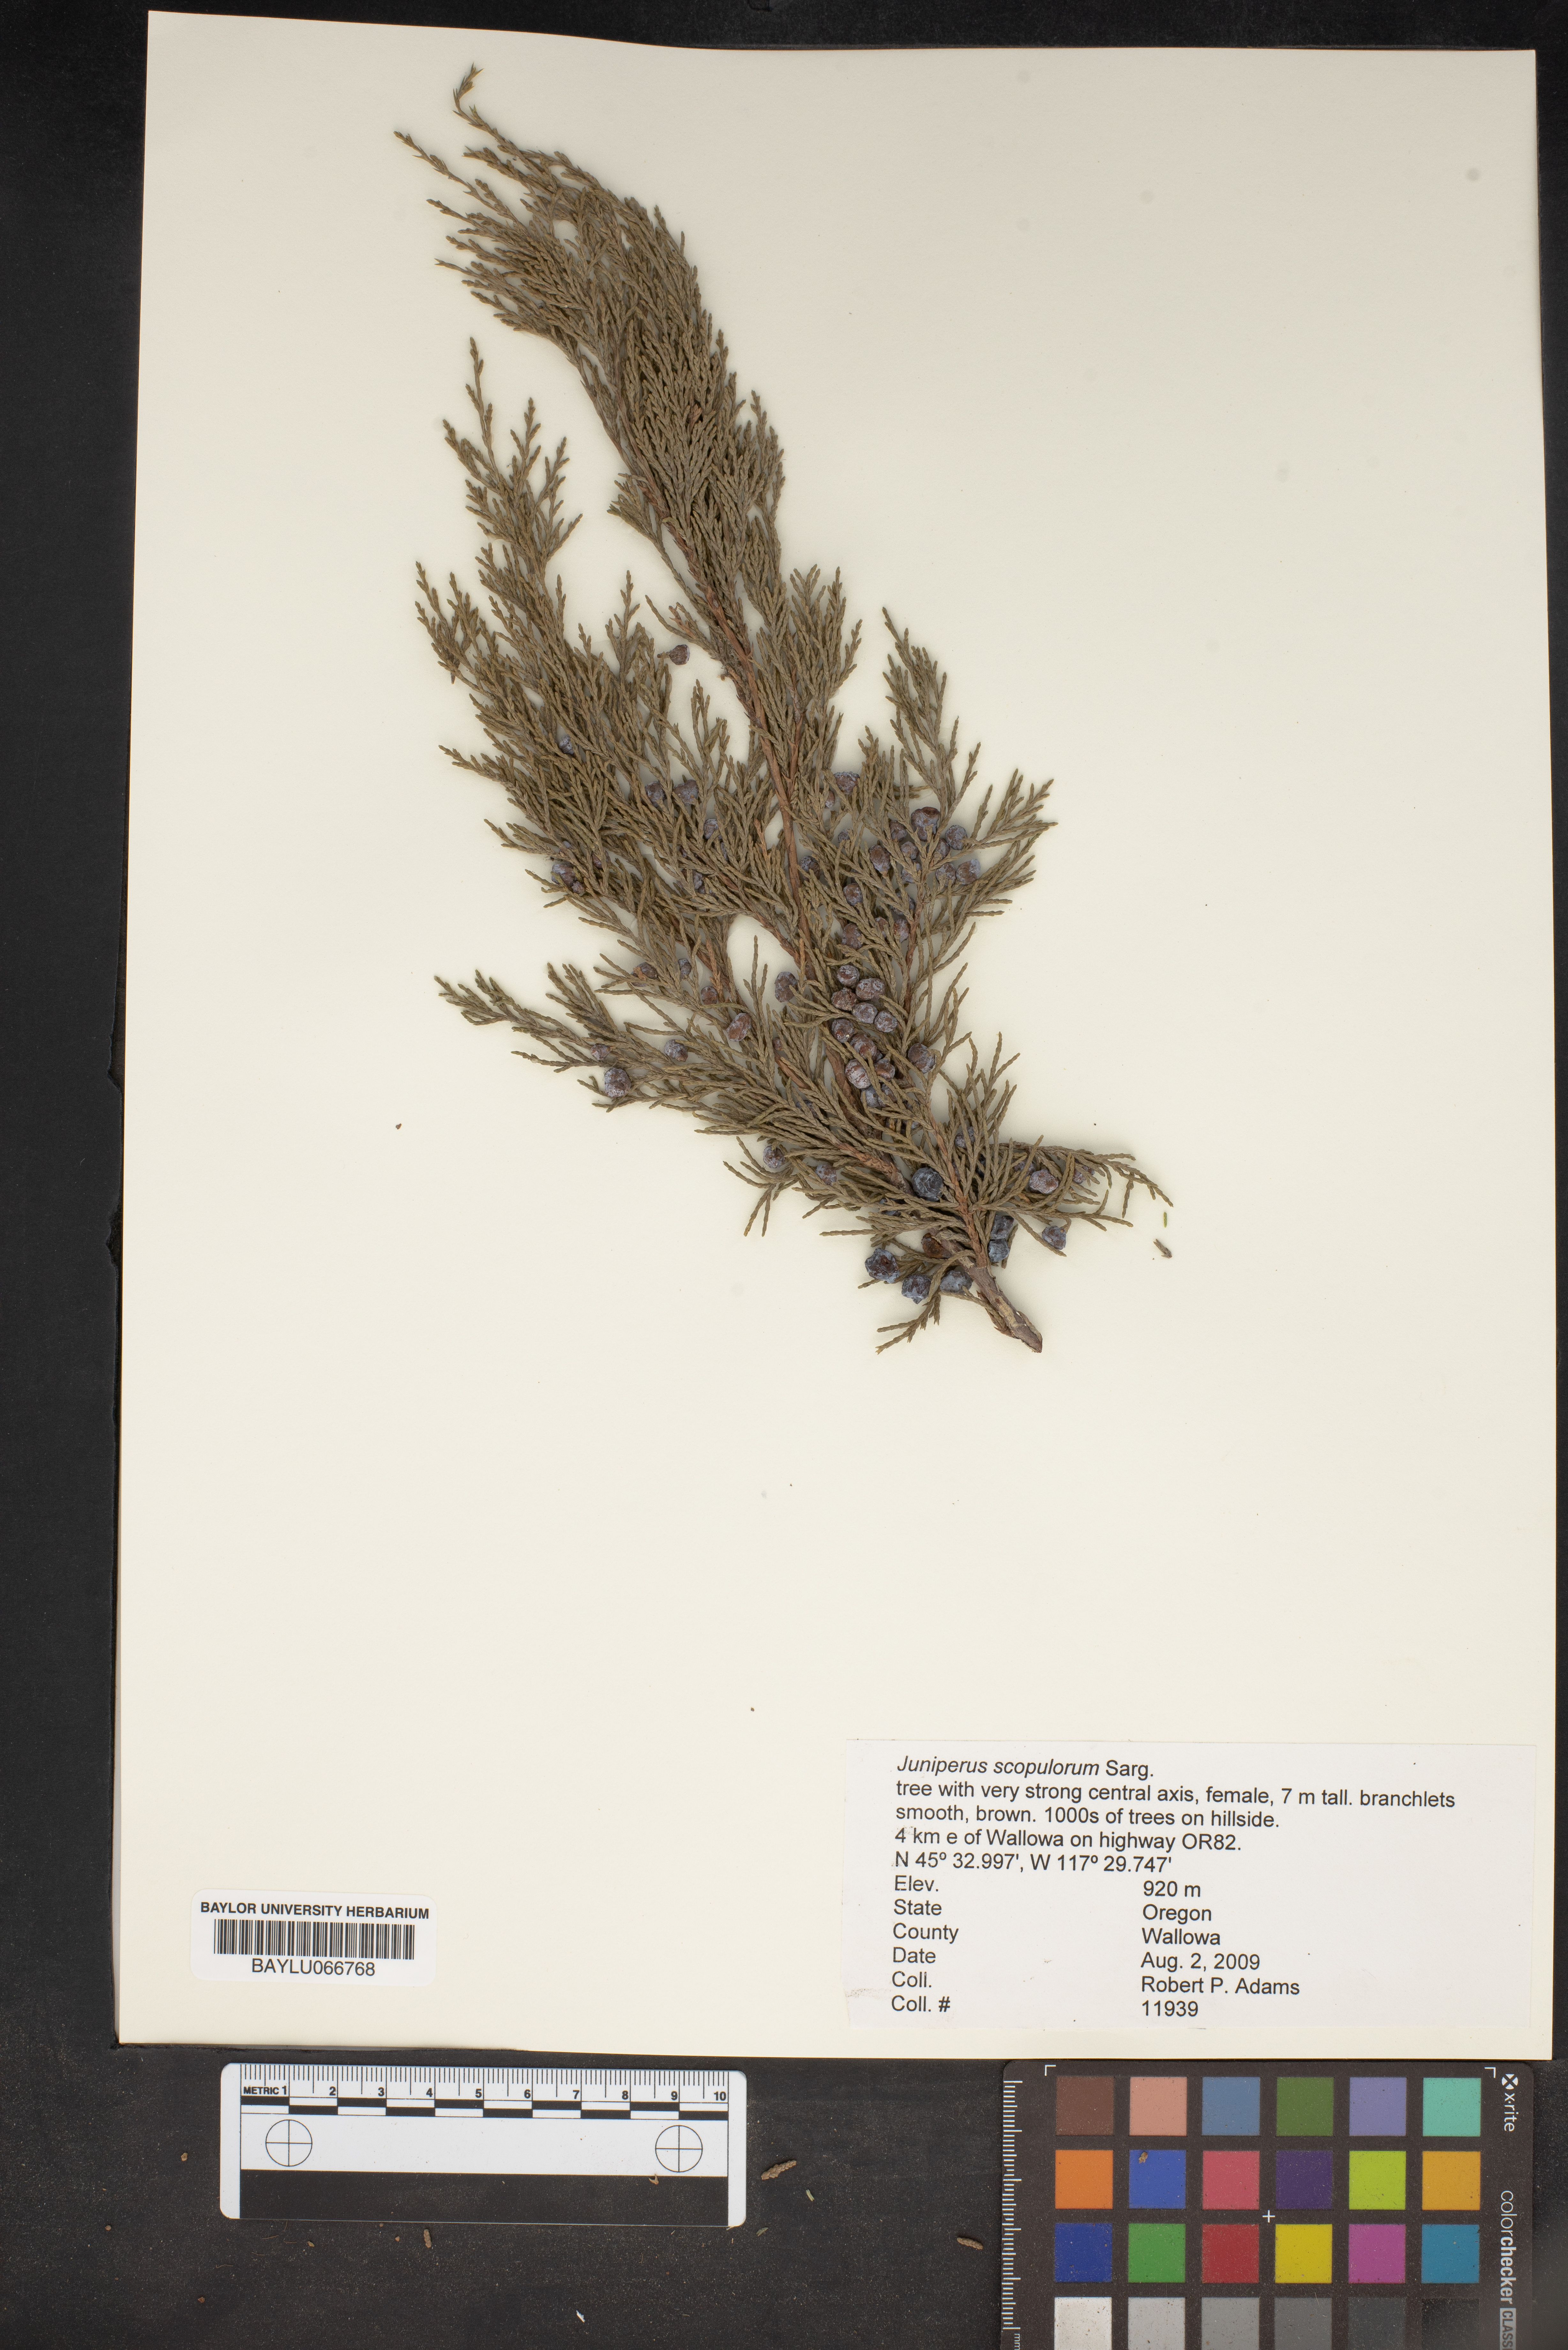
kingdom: Plantae
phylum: Tracheophyta
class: Pinopsida
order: Pinales
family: Cupressaceae
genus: Juniperus
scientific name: Juniperus scopulorum
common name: Rocky mountain juniper
